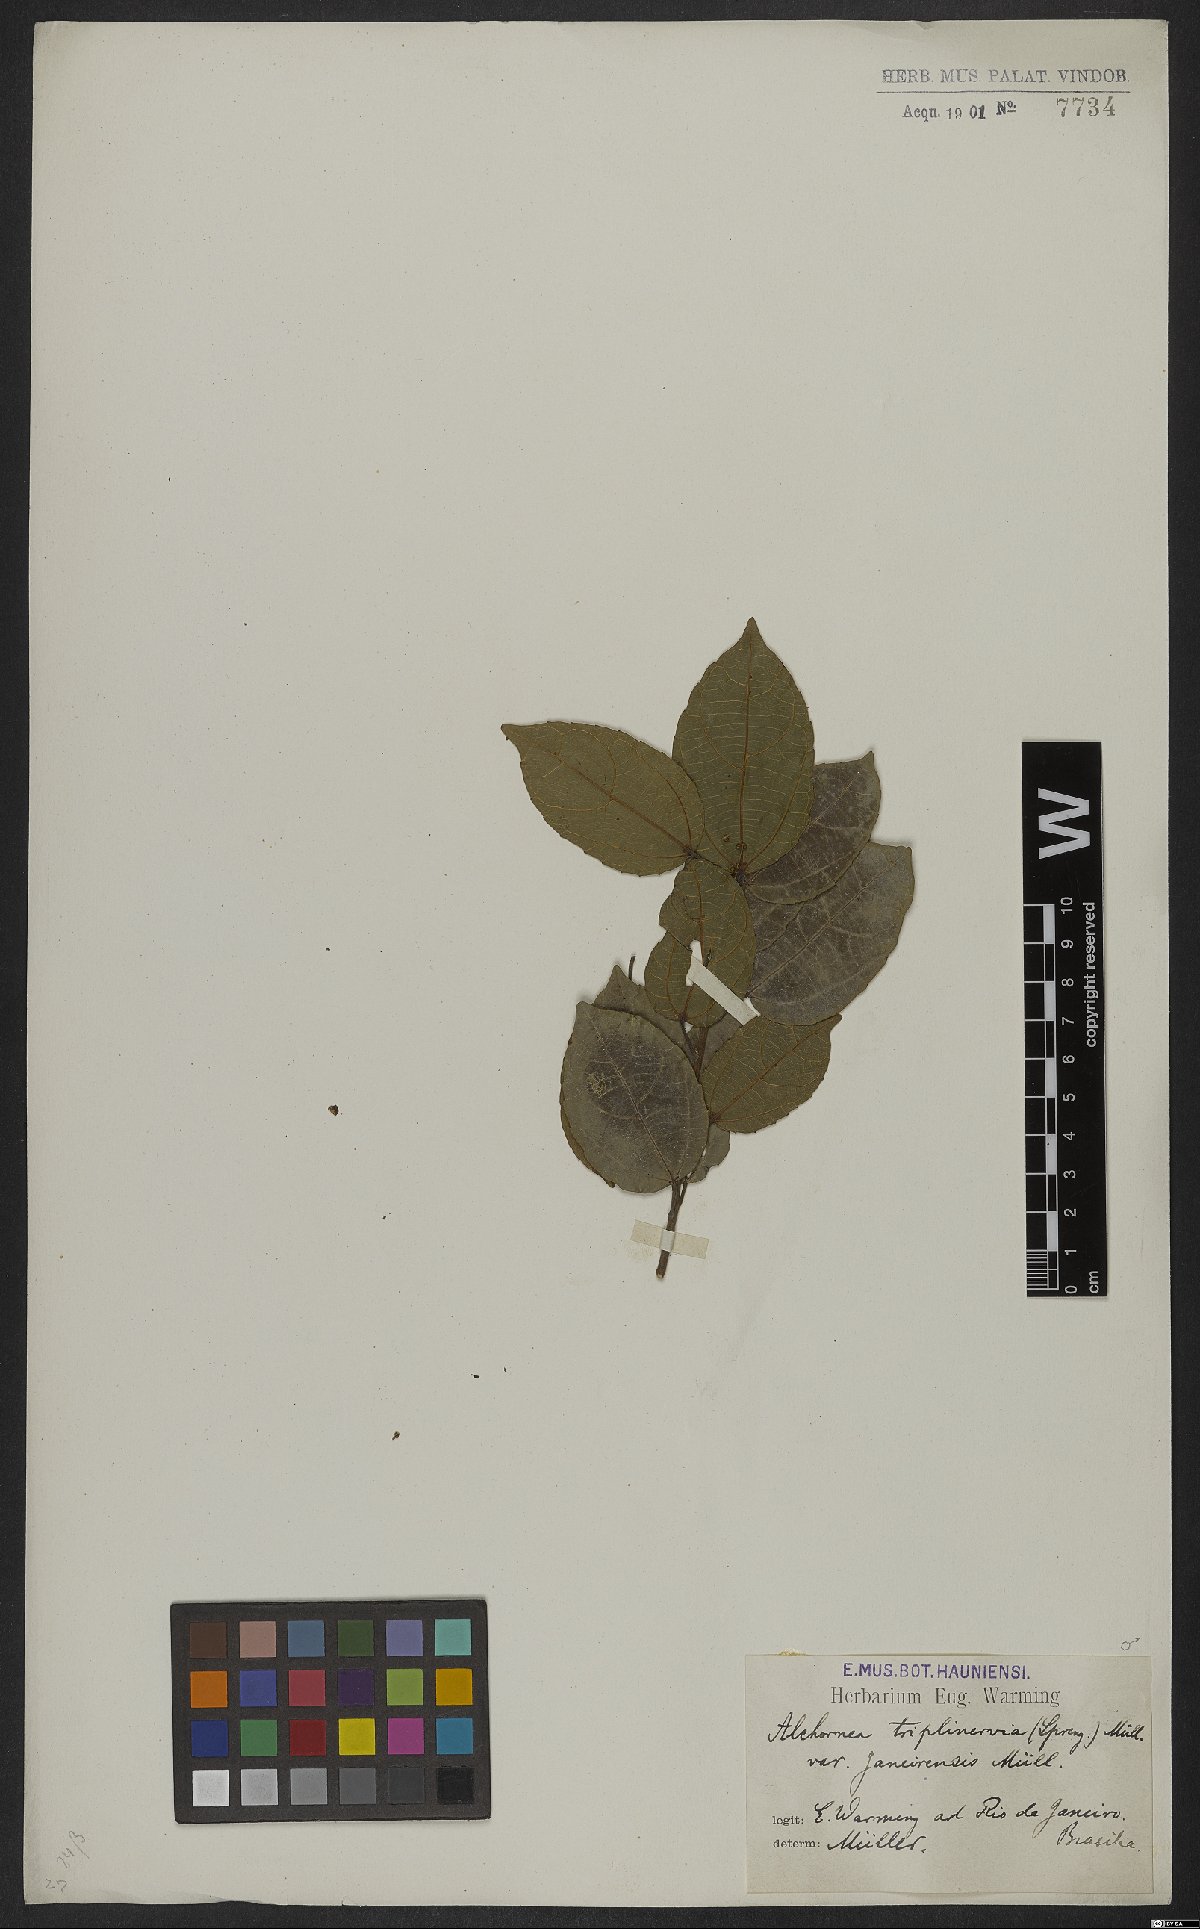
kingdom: Plantae
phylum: Tracheophyta
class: Magnoliopsida
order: Malpighiales
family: Euphorbiaceae
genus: Alchornea
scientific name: Alchornea triplinervia
